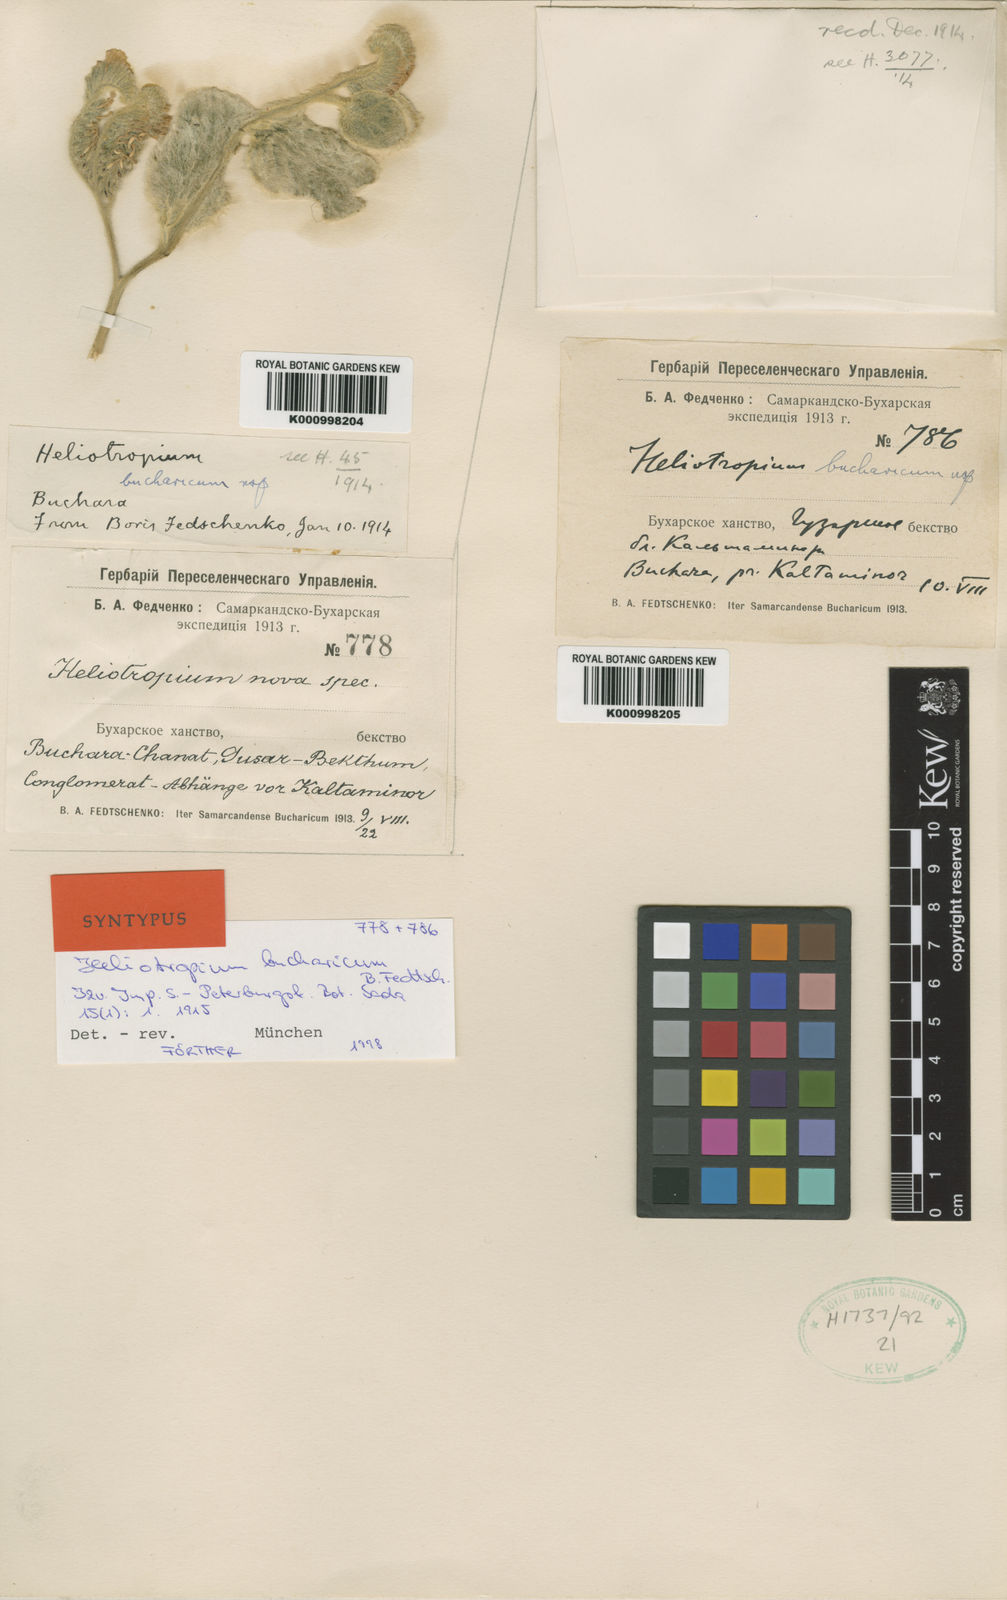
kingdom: Plantae
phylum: Tracheophyta
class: Magnoliopsida
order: Boraginales
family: Heliotropiaceae
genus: Heliotropium
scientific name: Heliotropium bucharicum
